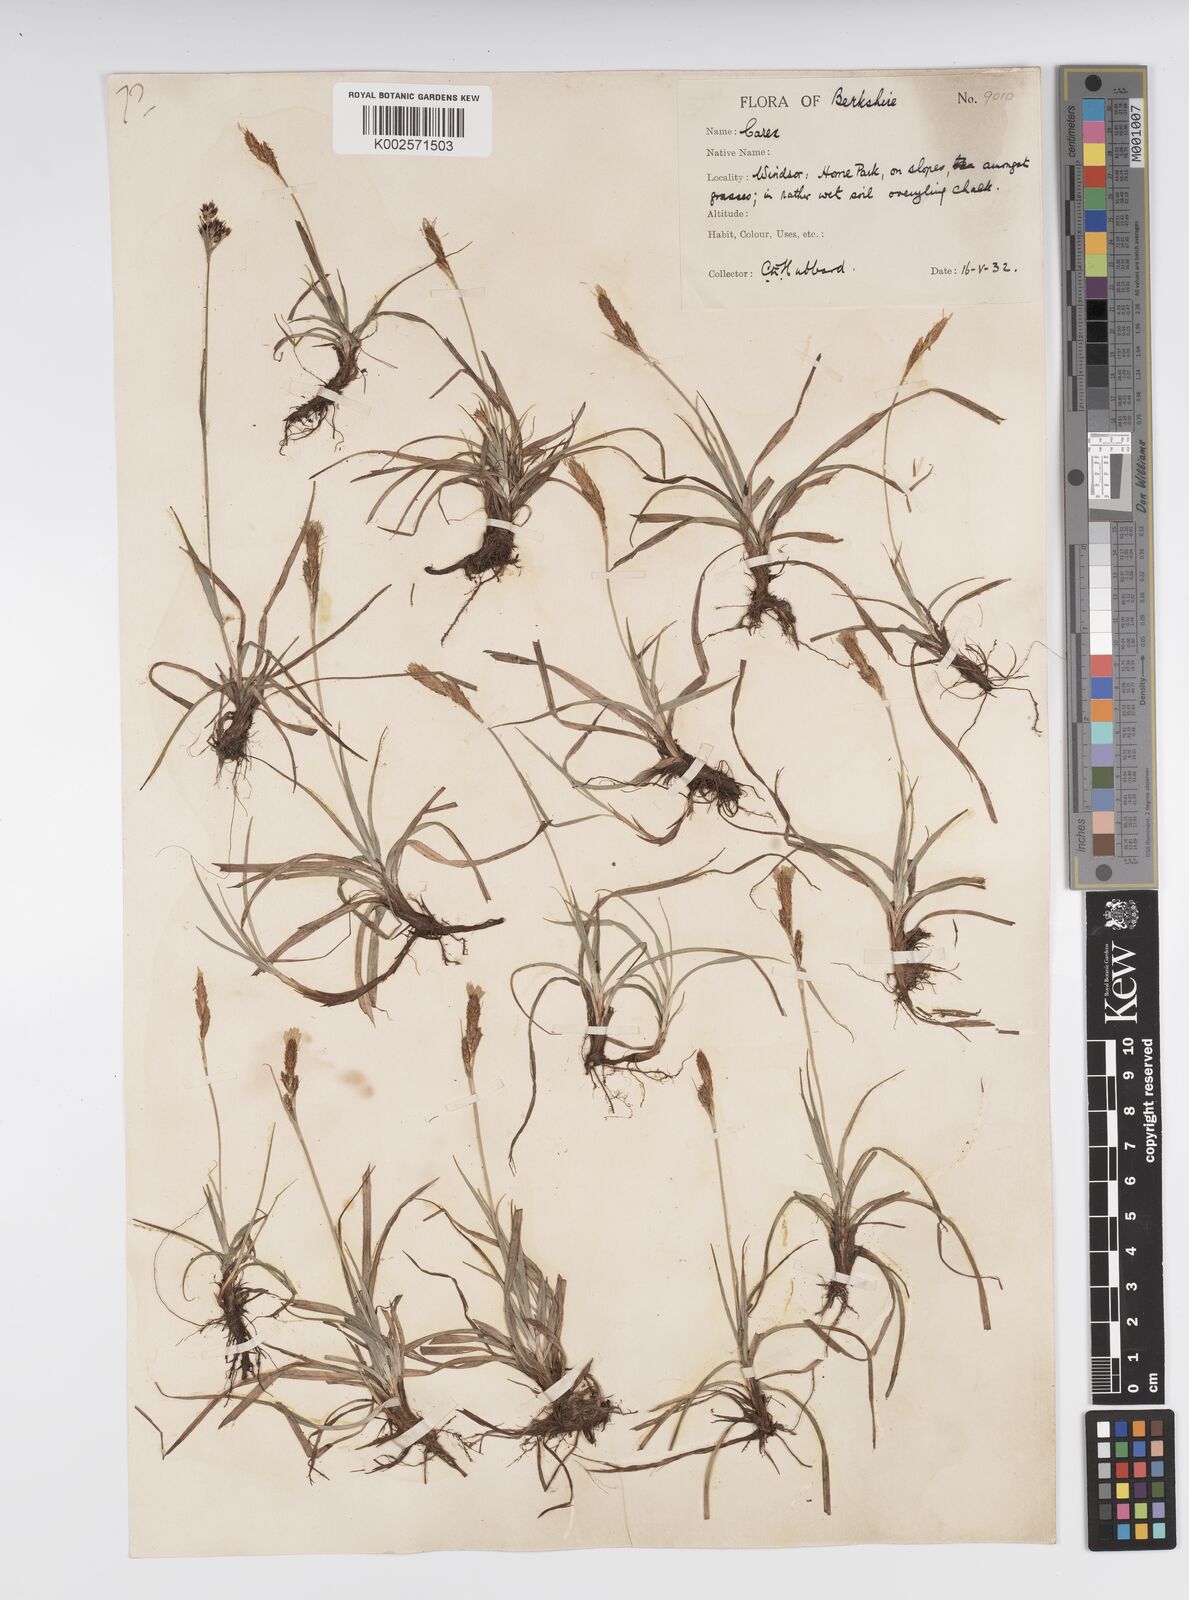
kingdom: Plantae
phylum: Tracheophyta
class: Liliopsida
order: Poales
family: Cyperaceae
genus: Carex
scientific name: Carex caryophyllea
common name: Spring sedge
